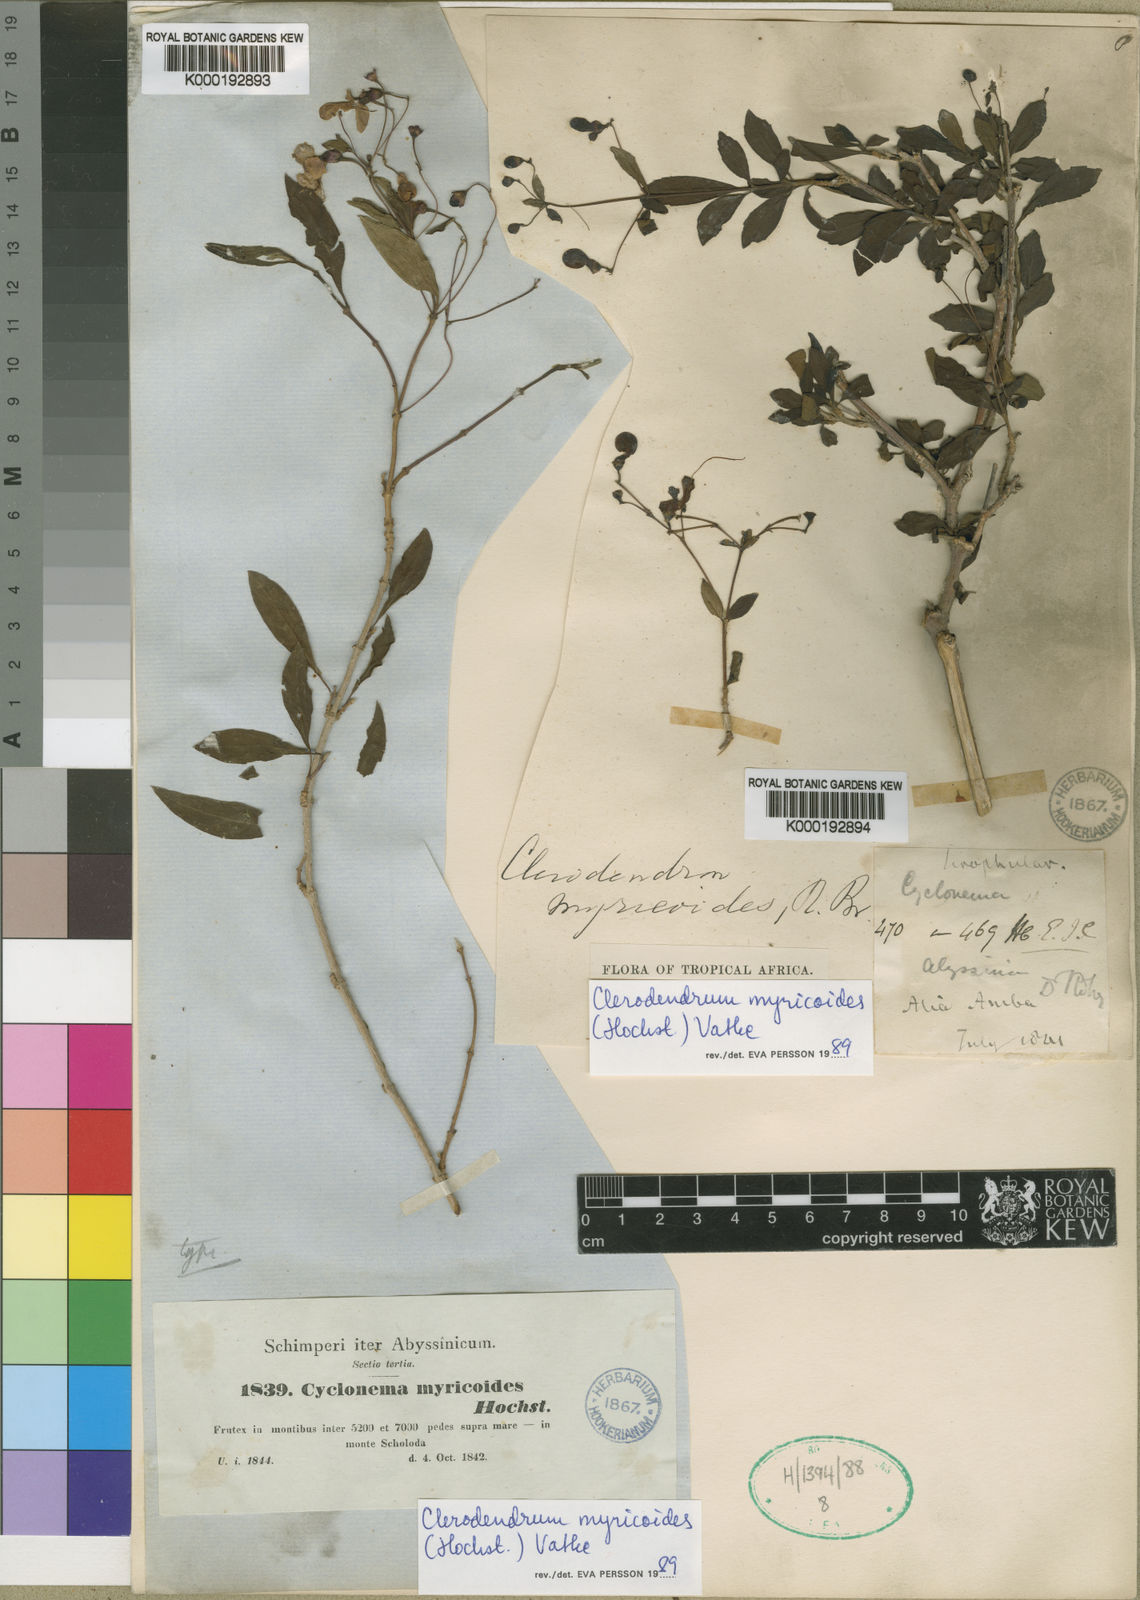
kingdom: Plantae
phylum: Tracheophyta
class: Magnoliopsida
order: Lamiales
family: Lamiaceae
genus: Rotheca
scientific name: Rotheca myricoides
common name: Cats-whiskers
